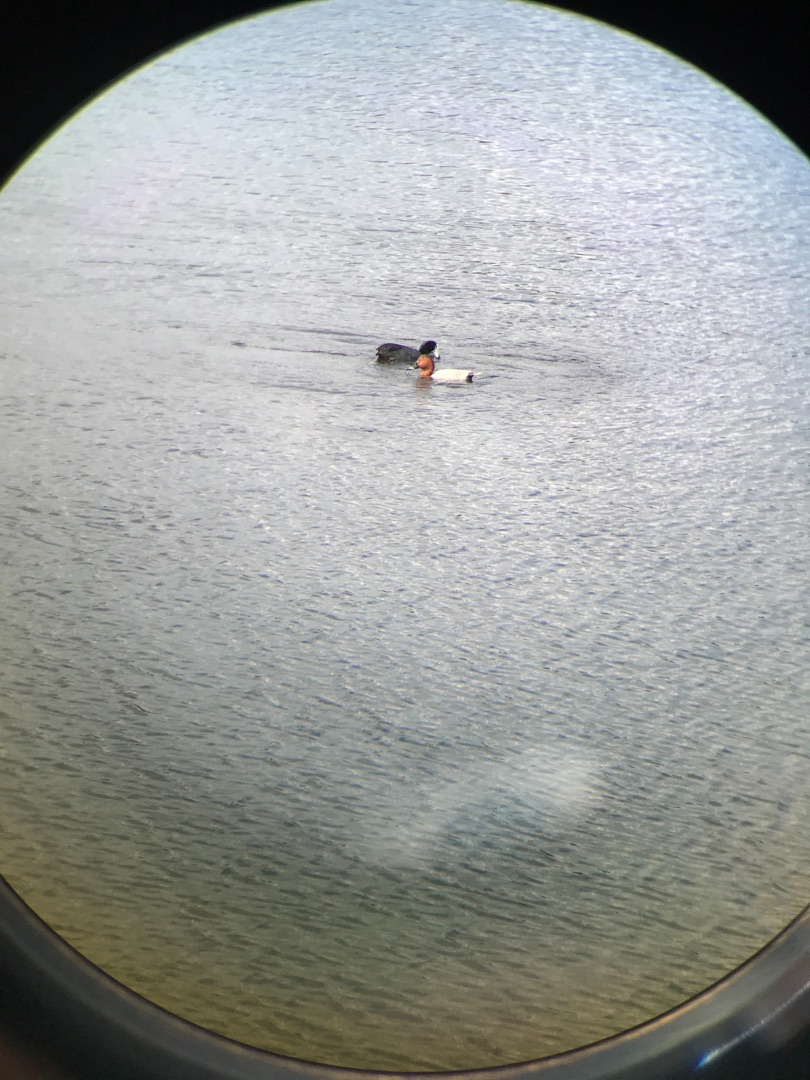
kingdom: Animalia
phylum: Chordata
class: Aves
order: Anseriformes
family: Anatidae
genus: Aythya
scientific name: Aythya ferina
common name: Taffeland
